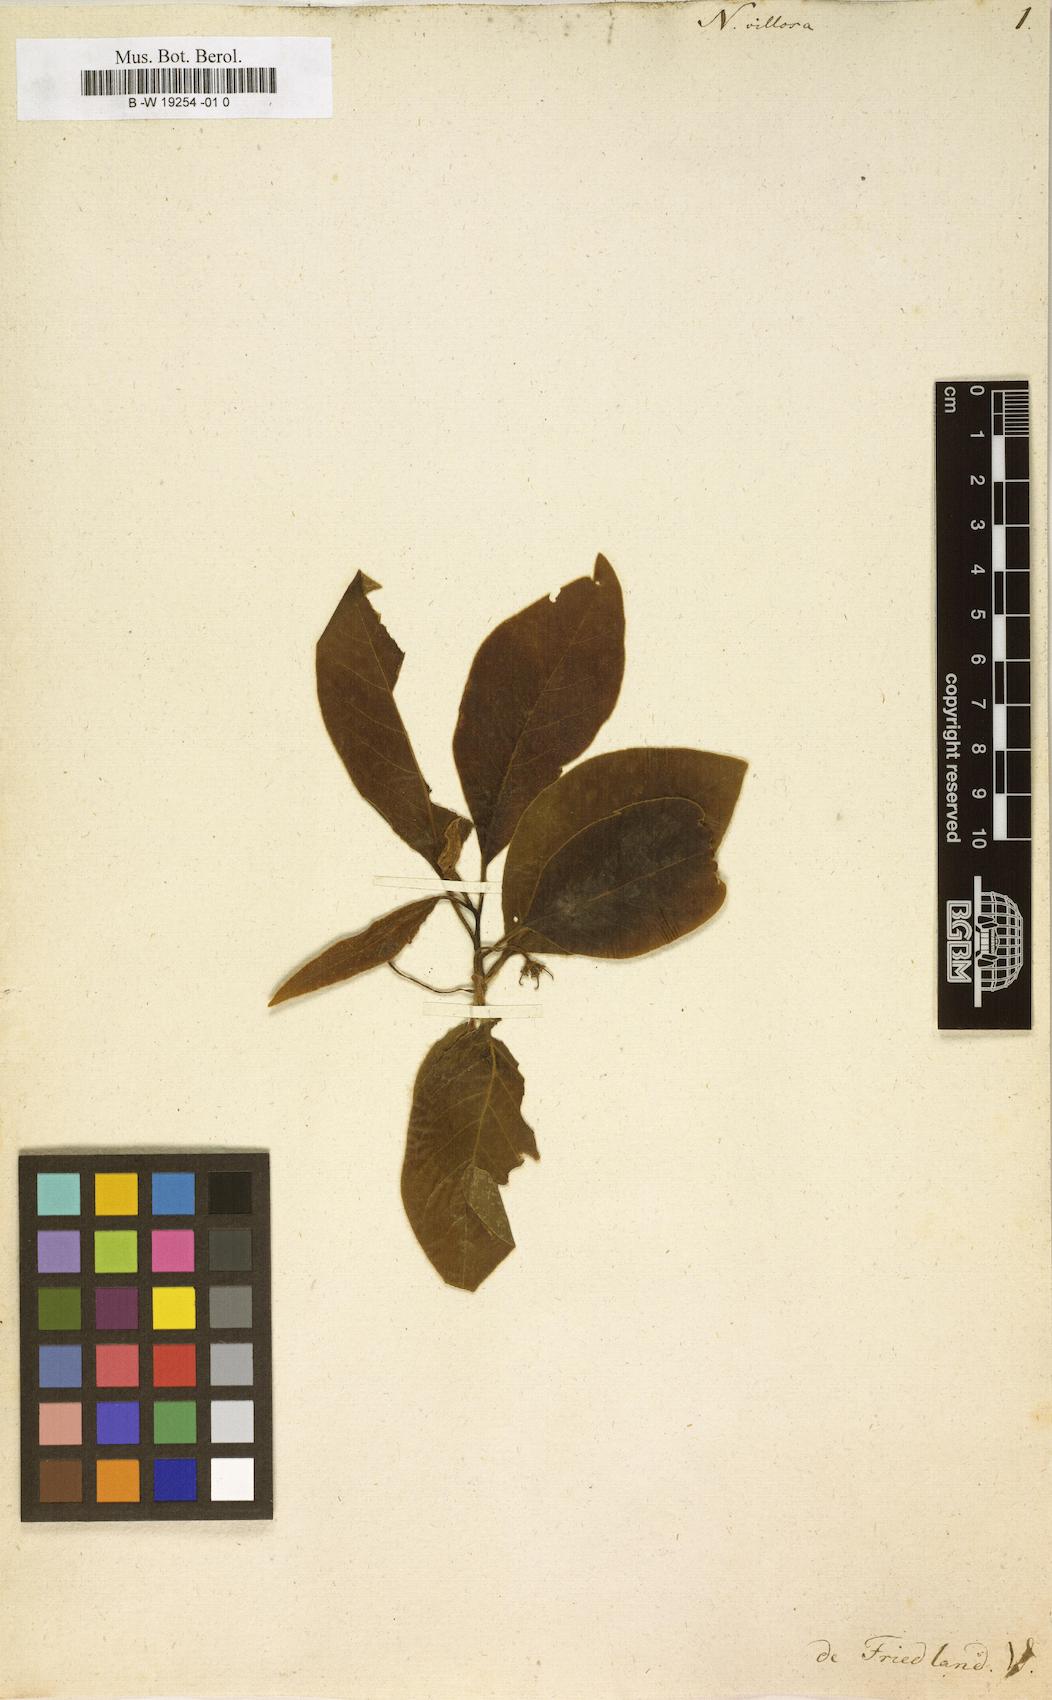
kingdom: Plantae
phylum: Tracheophyta
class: Magnoliopsida
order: Cornales
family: Nyssaceae
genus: Nyssa
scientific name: Nyssa villosa
